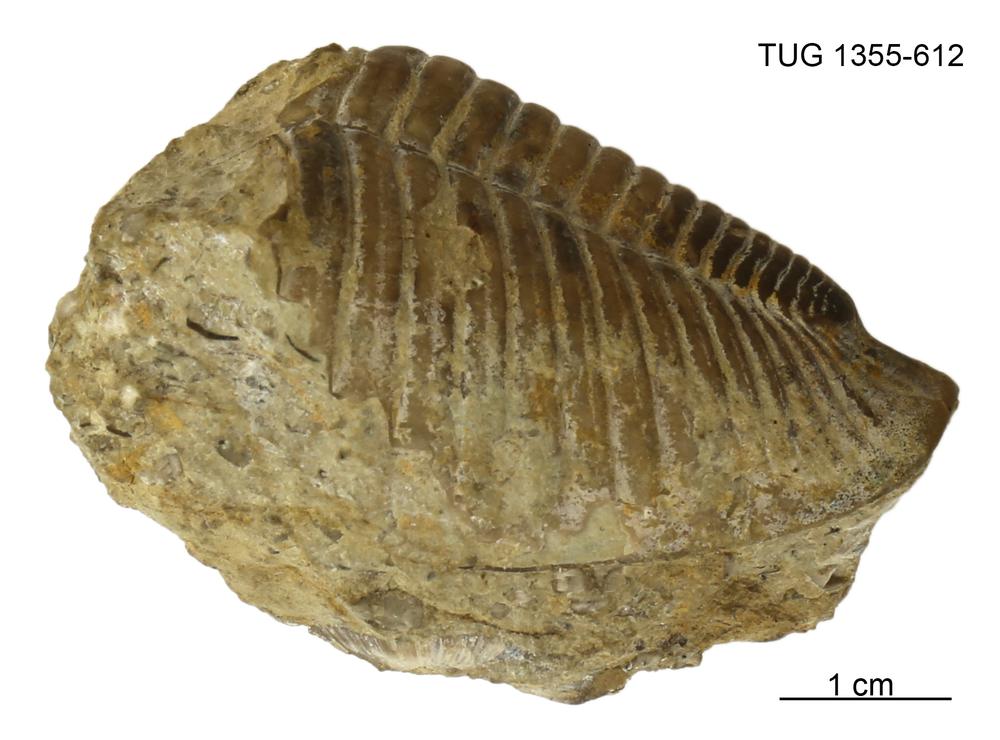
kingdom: Animalia
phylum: Arthropoda
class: Trilobita
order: Phacopida
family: Pterygometopidae
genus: Toxochasmops
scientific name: Toxochasmops maximus
